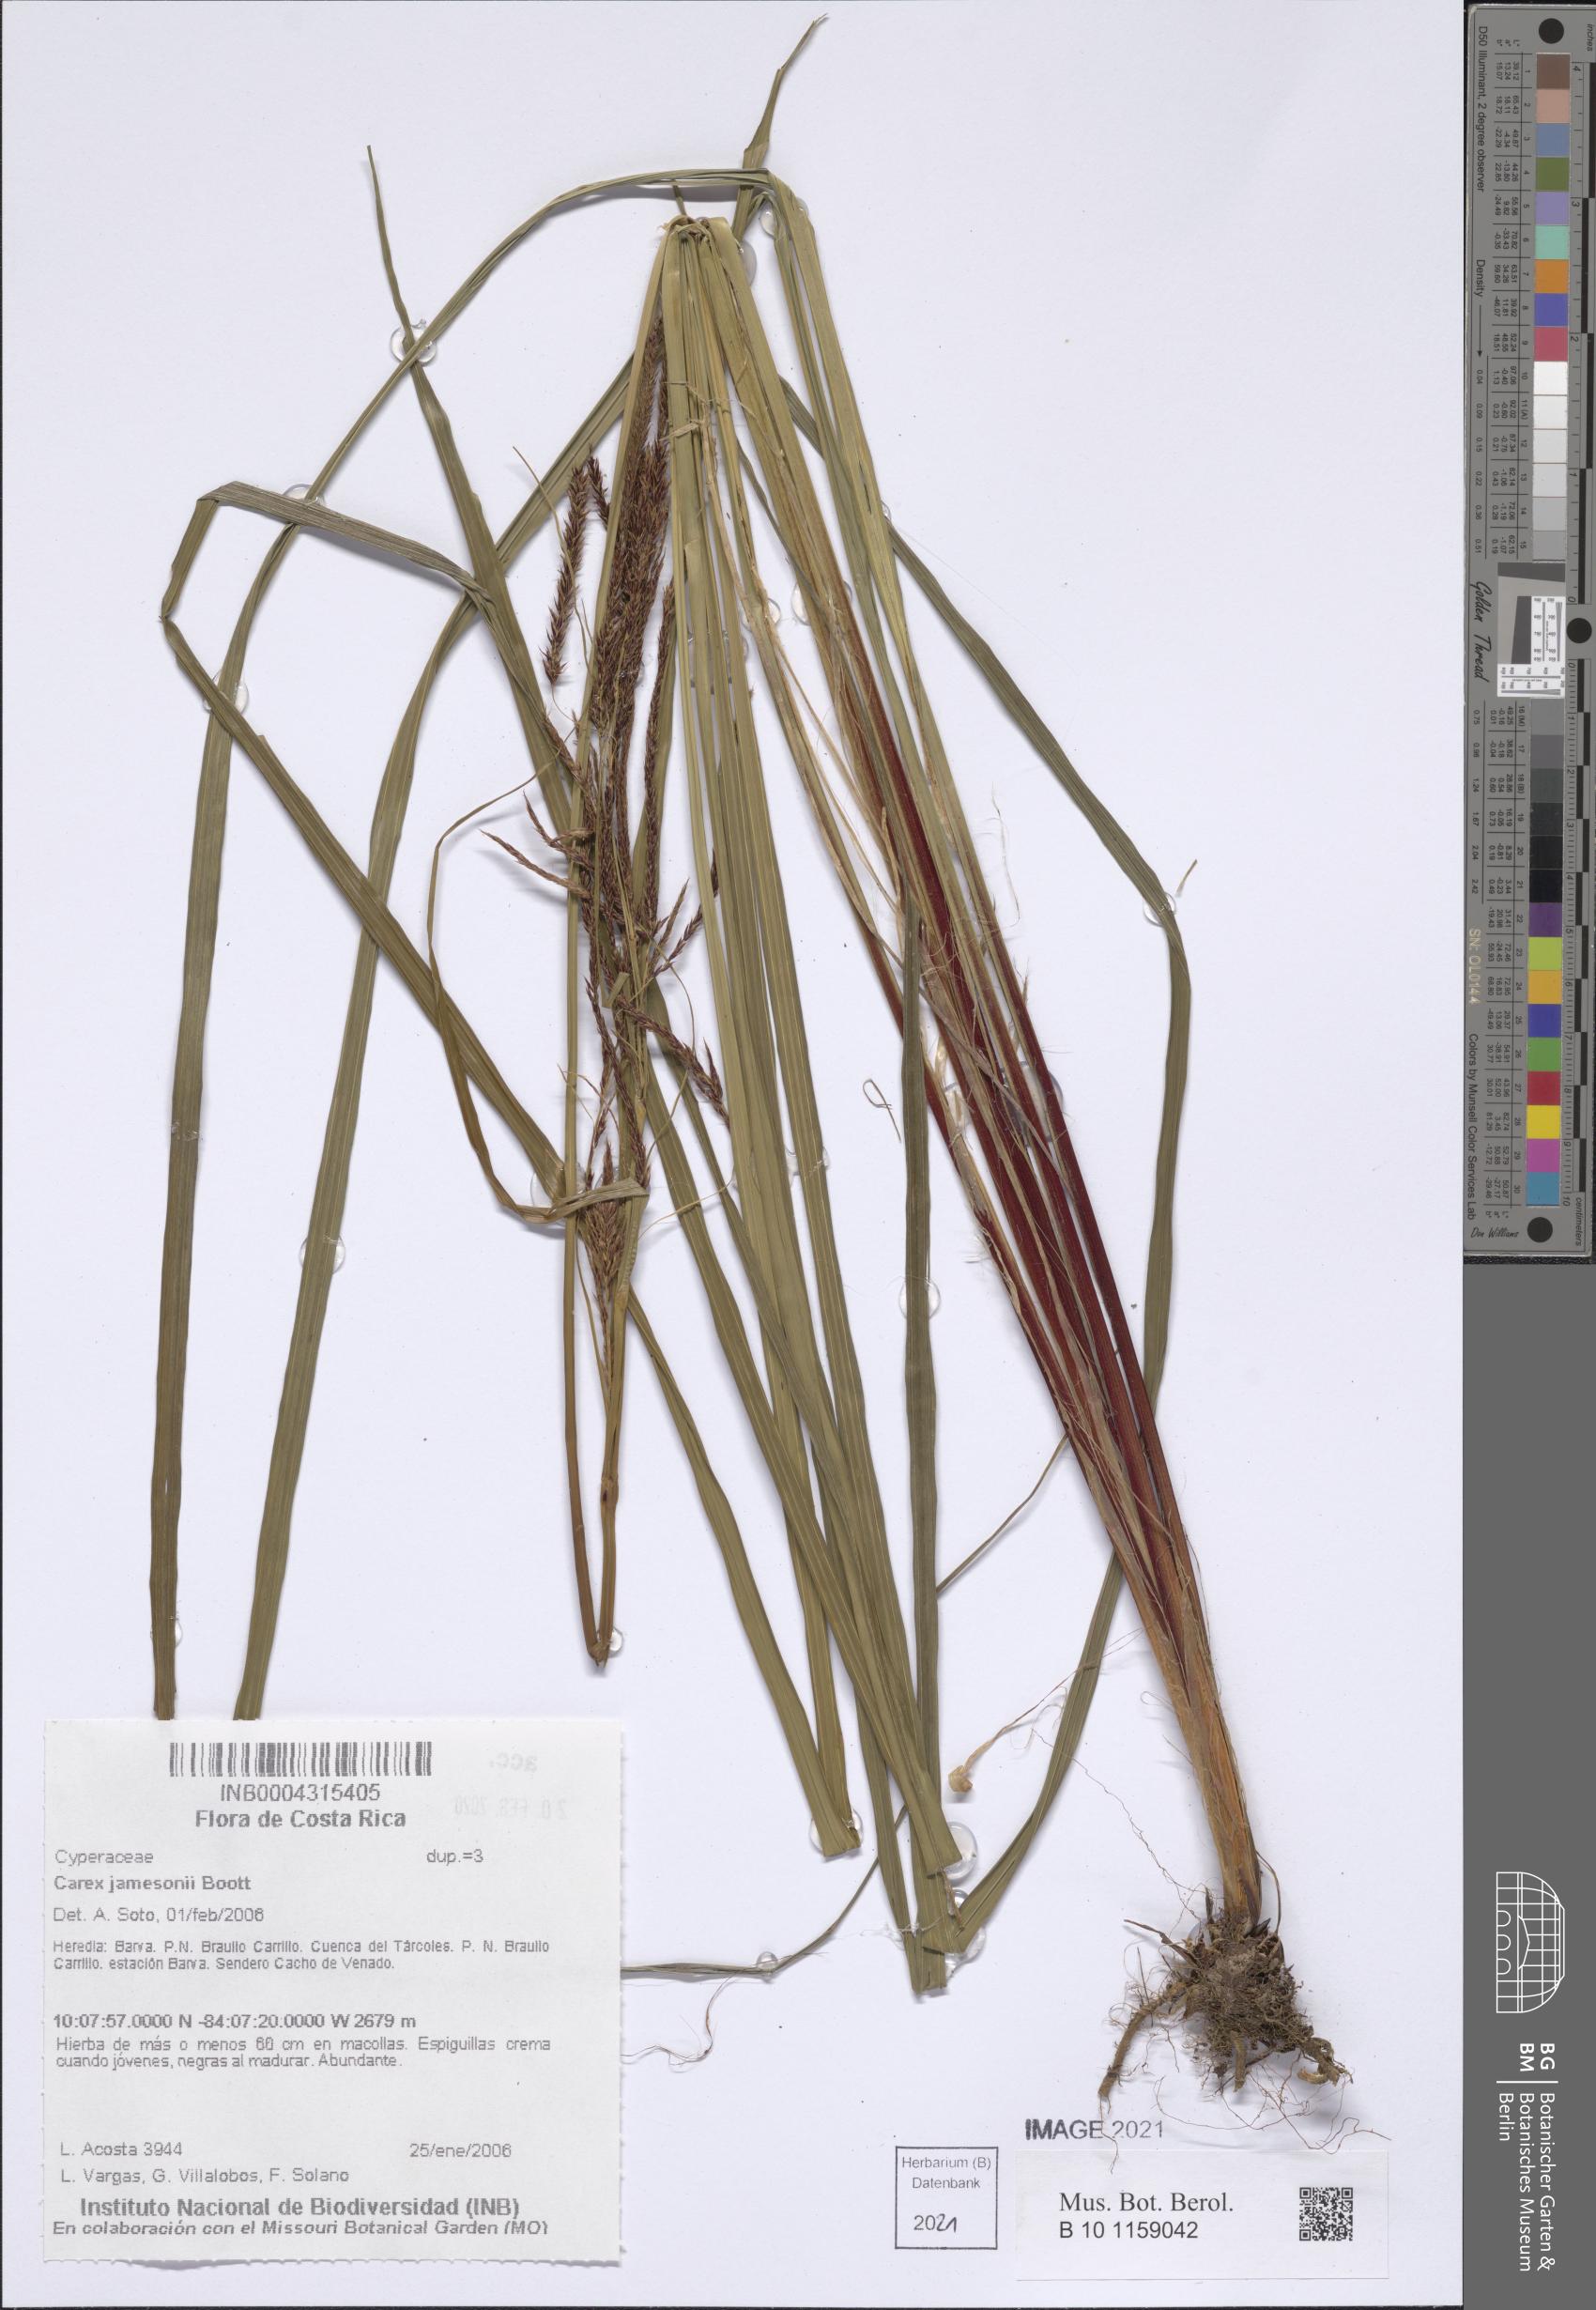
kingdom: Plantae
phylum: Tracheophyta
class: Liliopsida
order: Poales
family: Cyperaceae
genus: Carex
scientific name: Carex jamesonii
